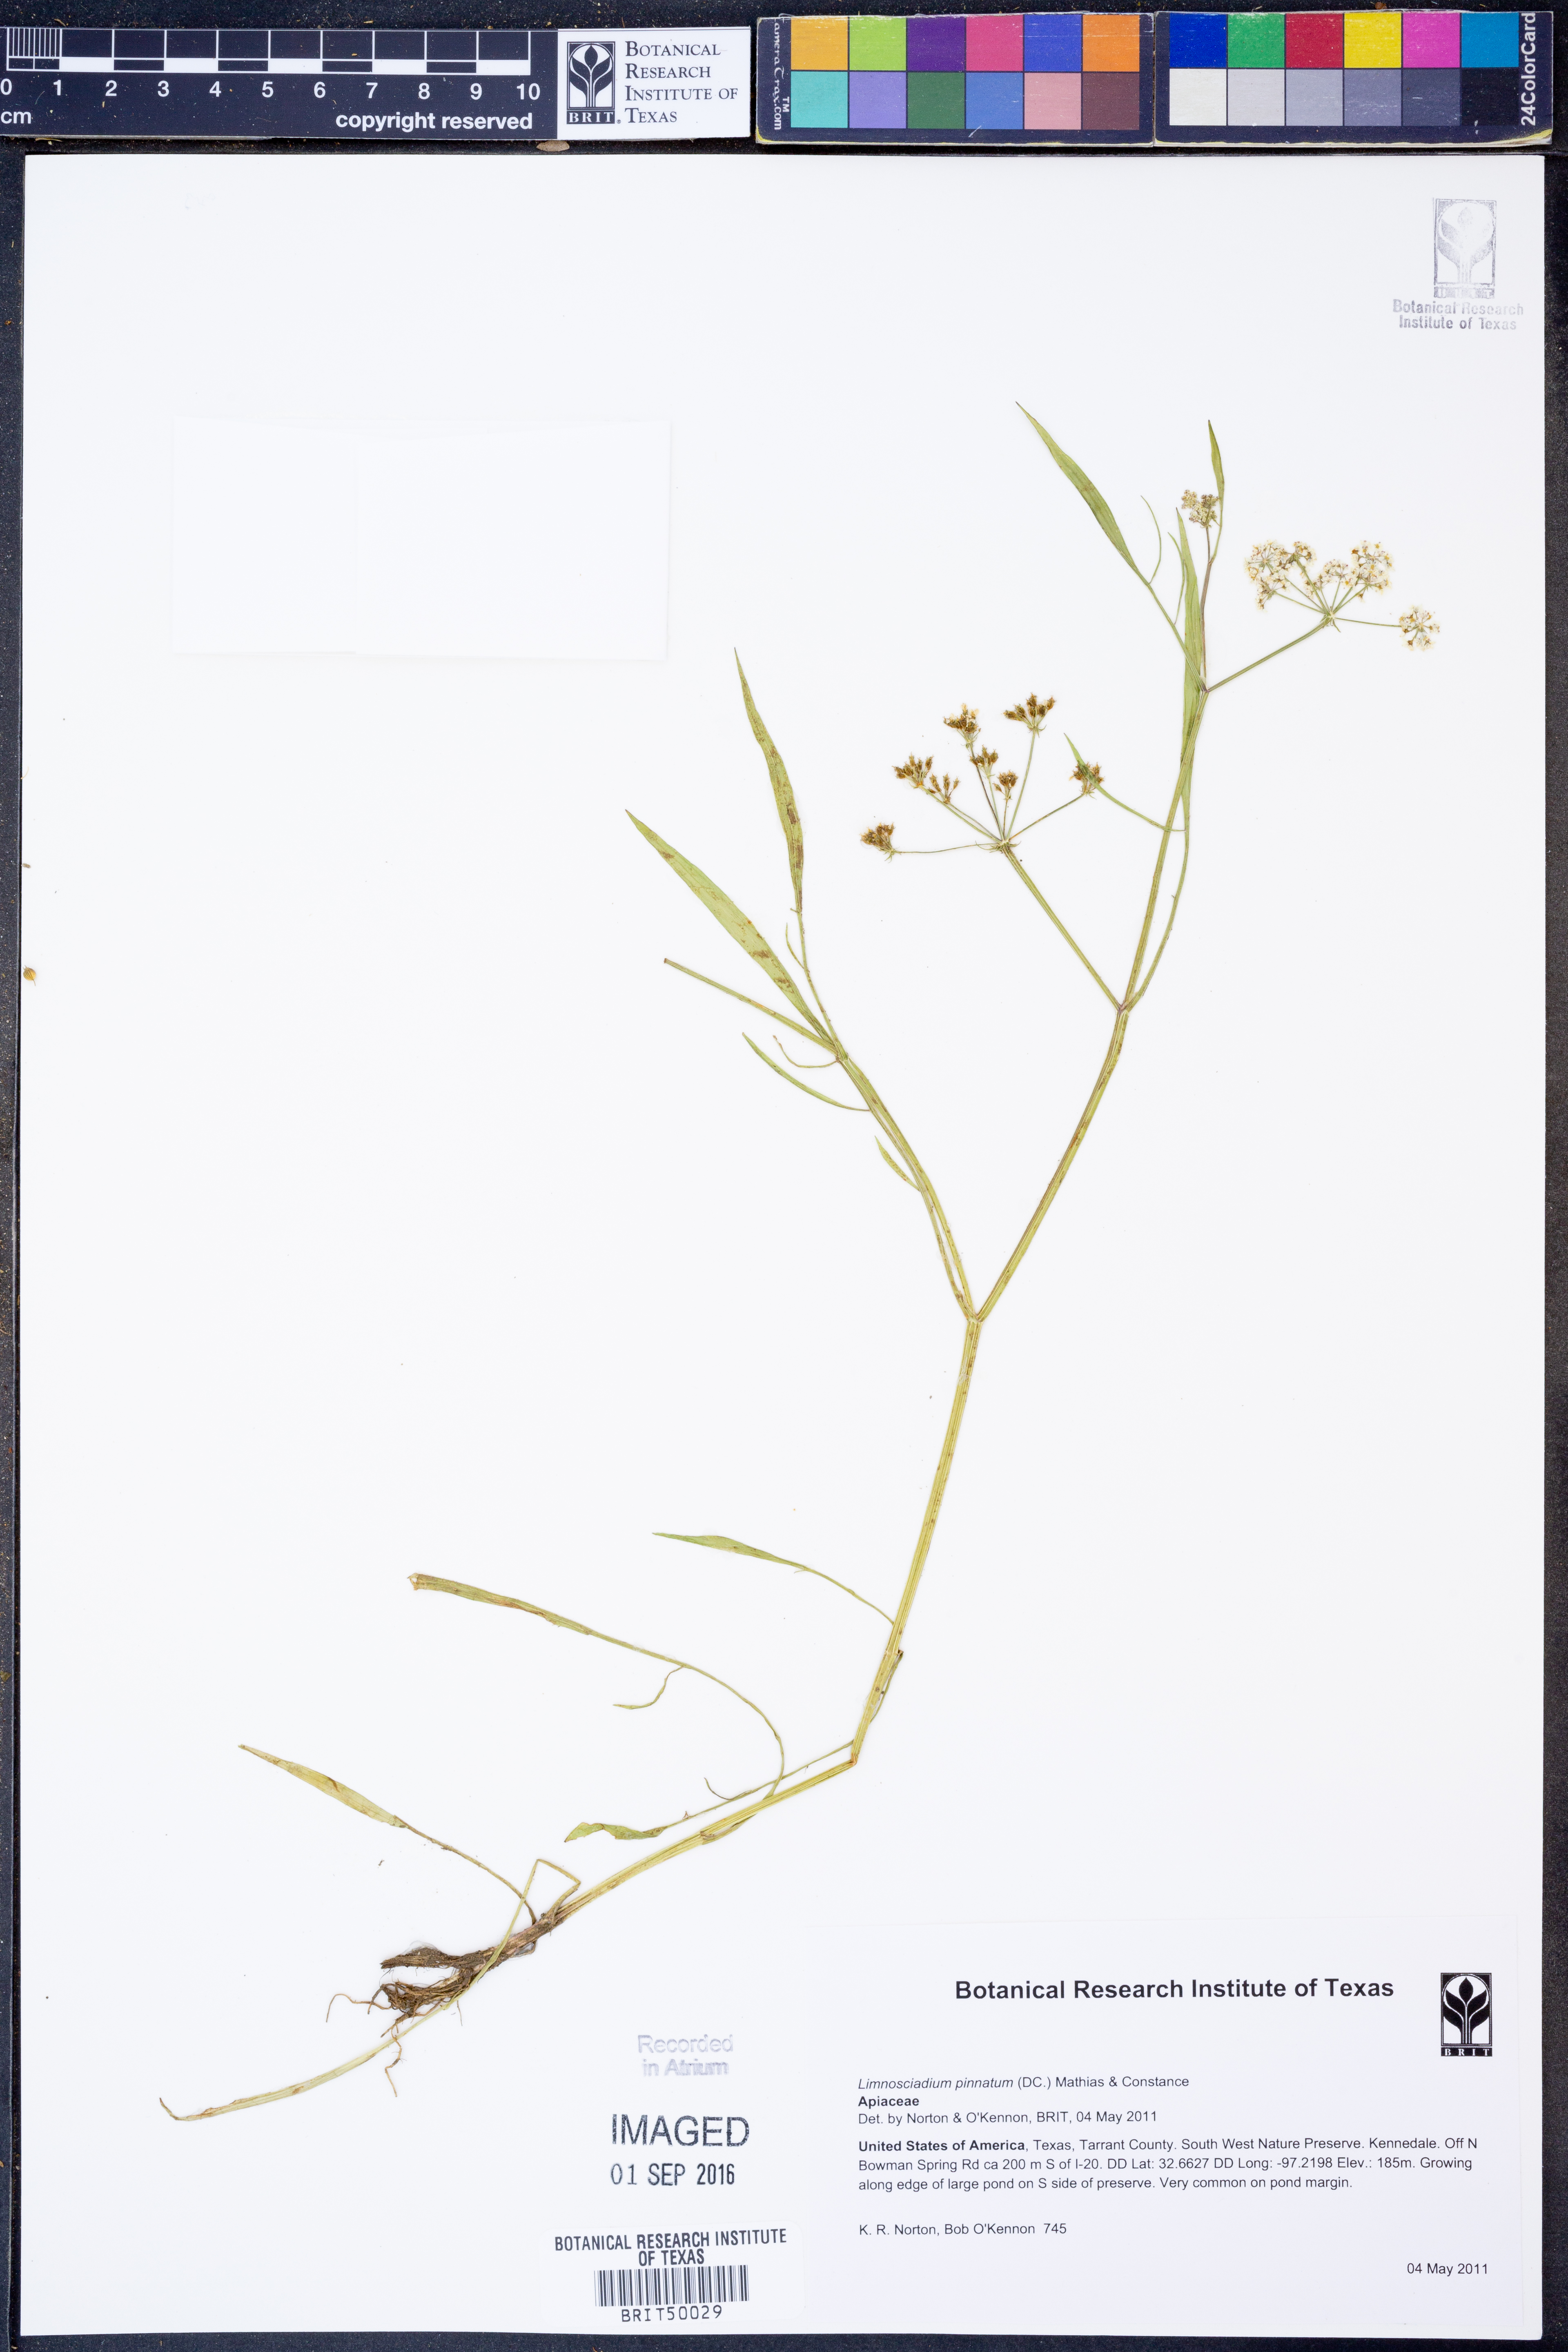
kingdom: Plantae
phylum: Tracheophyta
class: Magnoliopsida
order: Apiales
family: Apiaceae
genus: Limnosciadium
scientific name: Limnosciadium pinnatum
